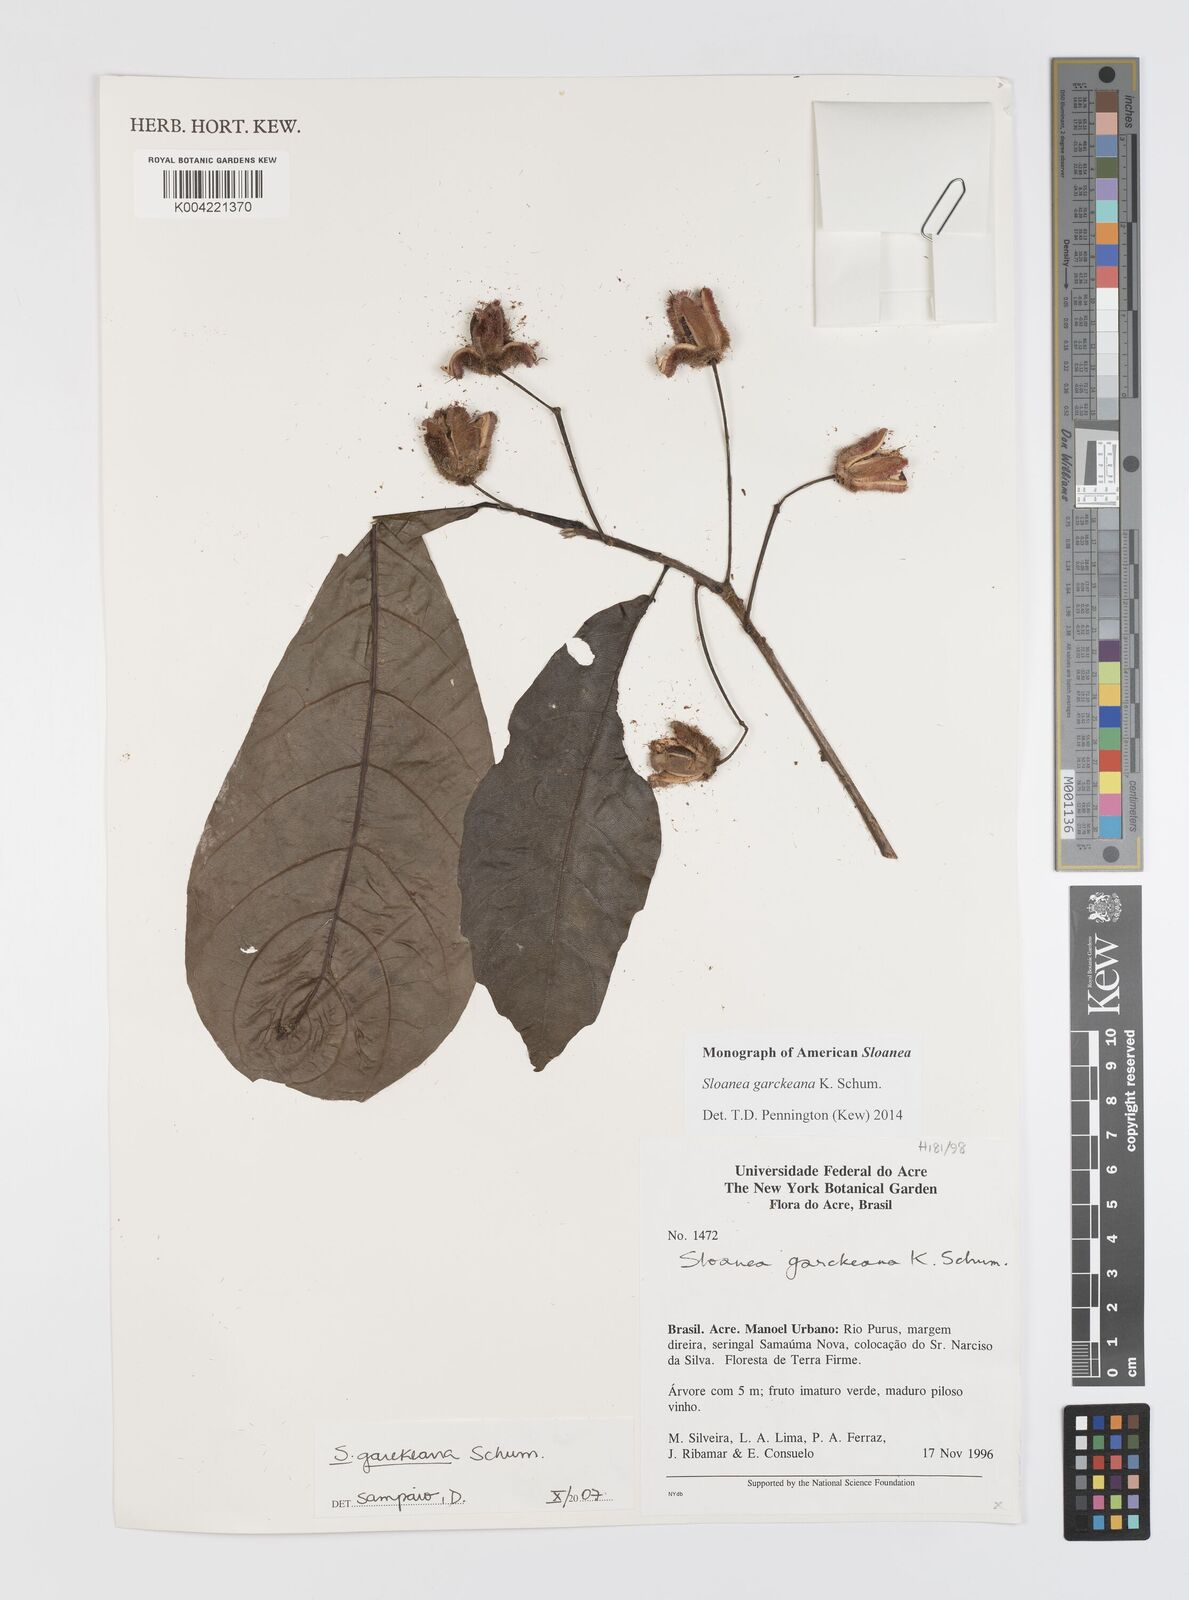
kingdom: Plantae
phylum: Tracheophyta
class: Magnoliopsida
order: Oxalidales
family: Elaeocarpaceae
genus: Sloanea
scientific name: Sloanea garckeana
